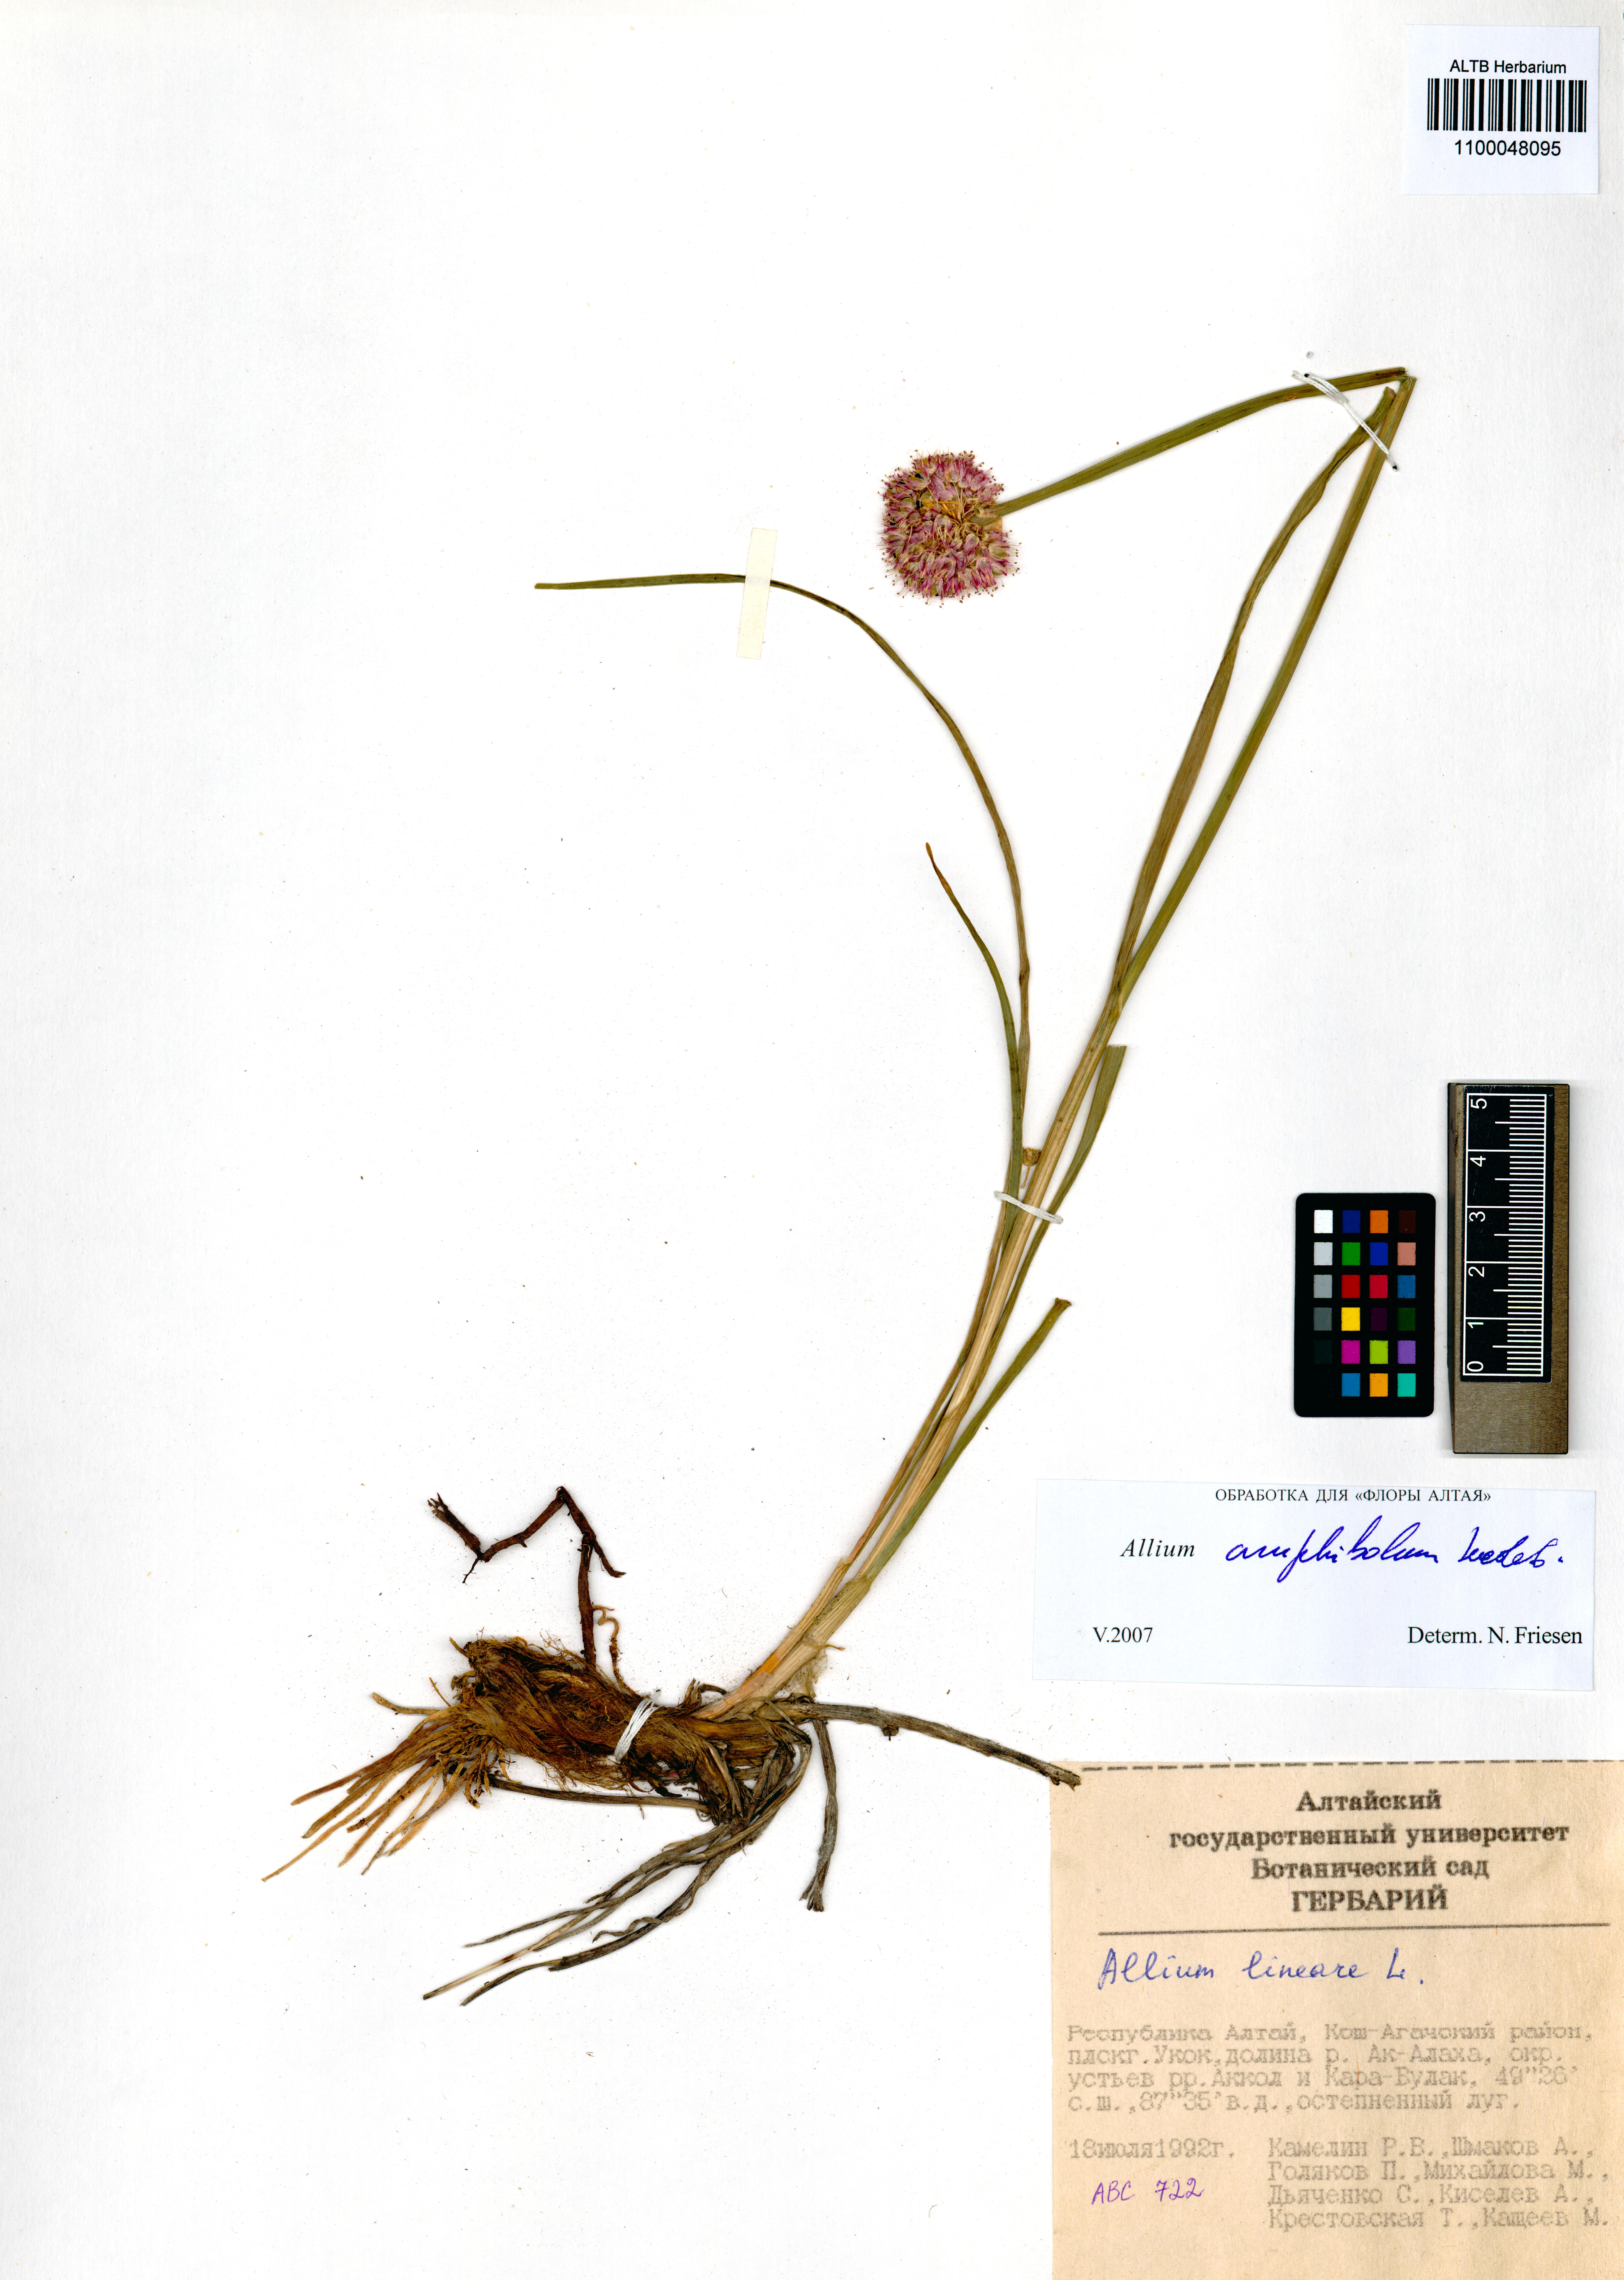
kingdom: Plantae
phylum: Tracheophyta
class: Liliopsida
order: Asparagales
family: Amaryllidaceae
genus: Allium
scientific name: Allium amphibolum
